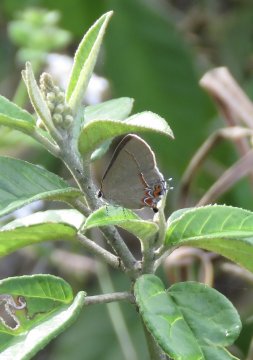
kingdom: Animalia
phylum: Arthropoda
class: Insecta
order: Lepidoptera
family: Lycaenidae
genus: Calycopis
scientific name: Calycopis isobeon
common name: Dusky-blue Groundstreak
